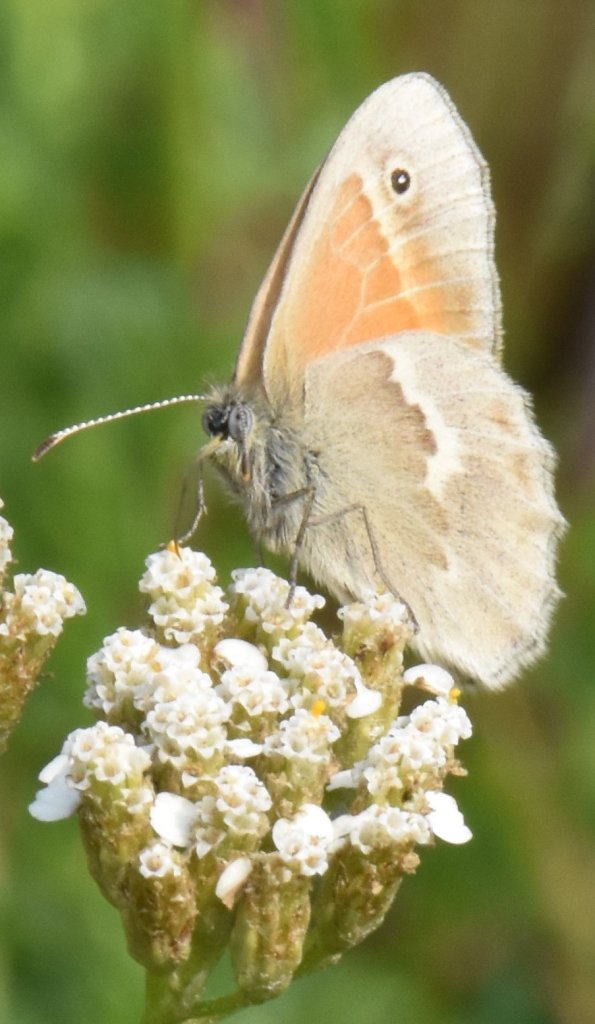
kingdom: Animalia
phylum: Arthropoda
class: Insecta
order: Lepidoptera
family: Nymphalidae
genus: Coenonympha
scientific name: Coenonympha tullia
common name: Large Heath
